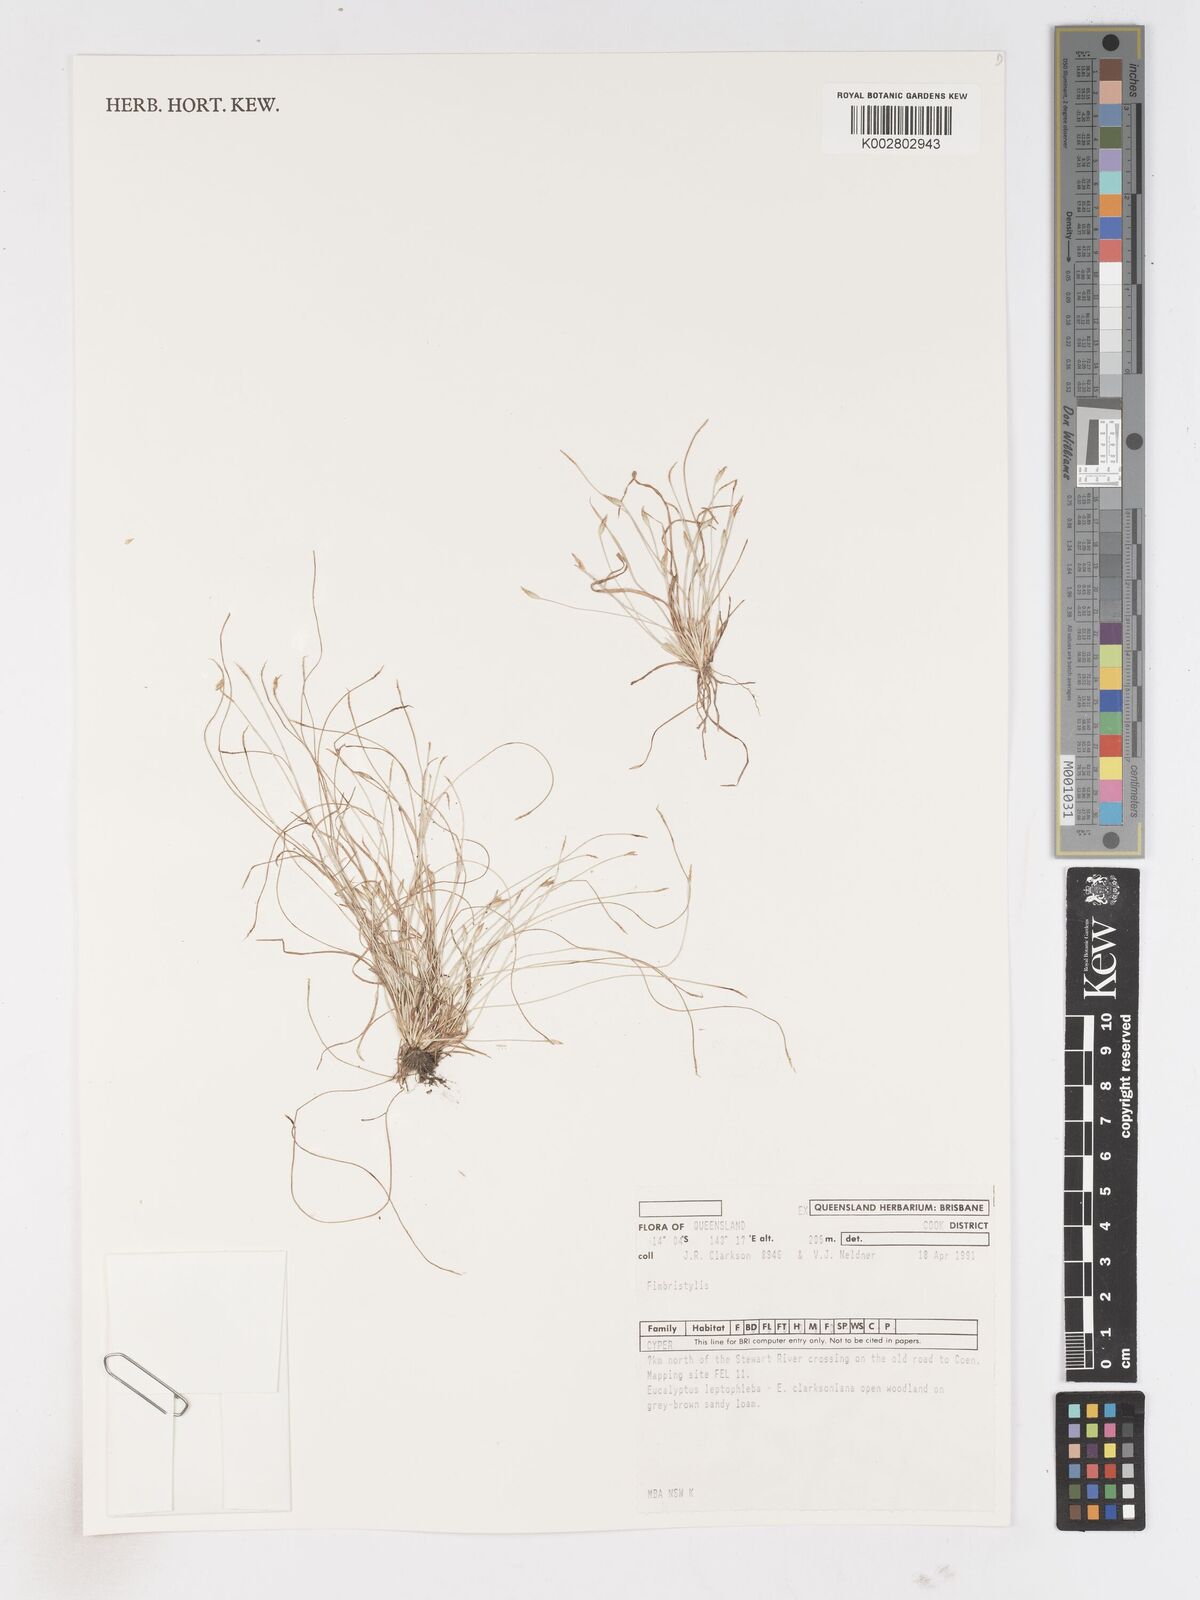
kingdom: Plantae
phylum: Tracheophyta
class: Liliopsida
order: Poales
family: Cyperaceae
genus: Fimbristylis
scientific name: Fimbristylis
